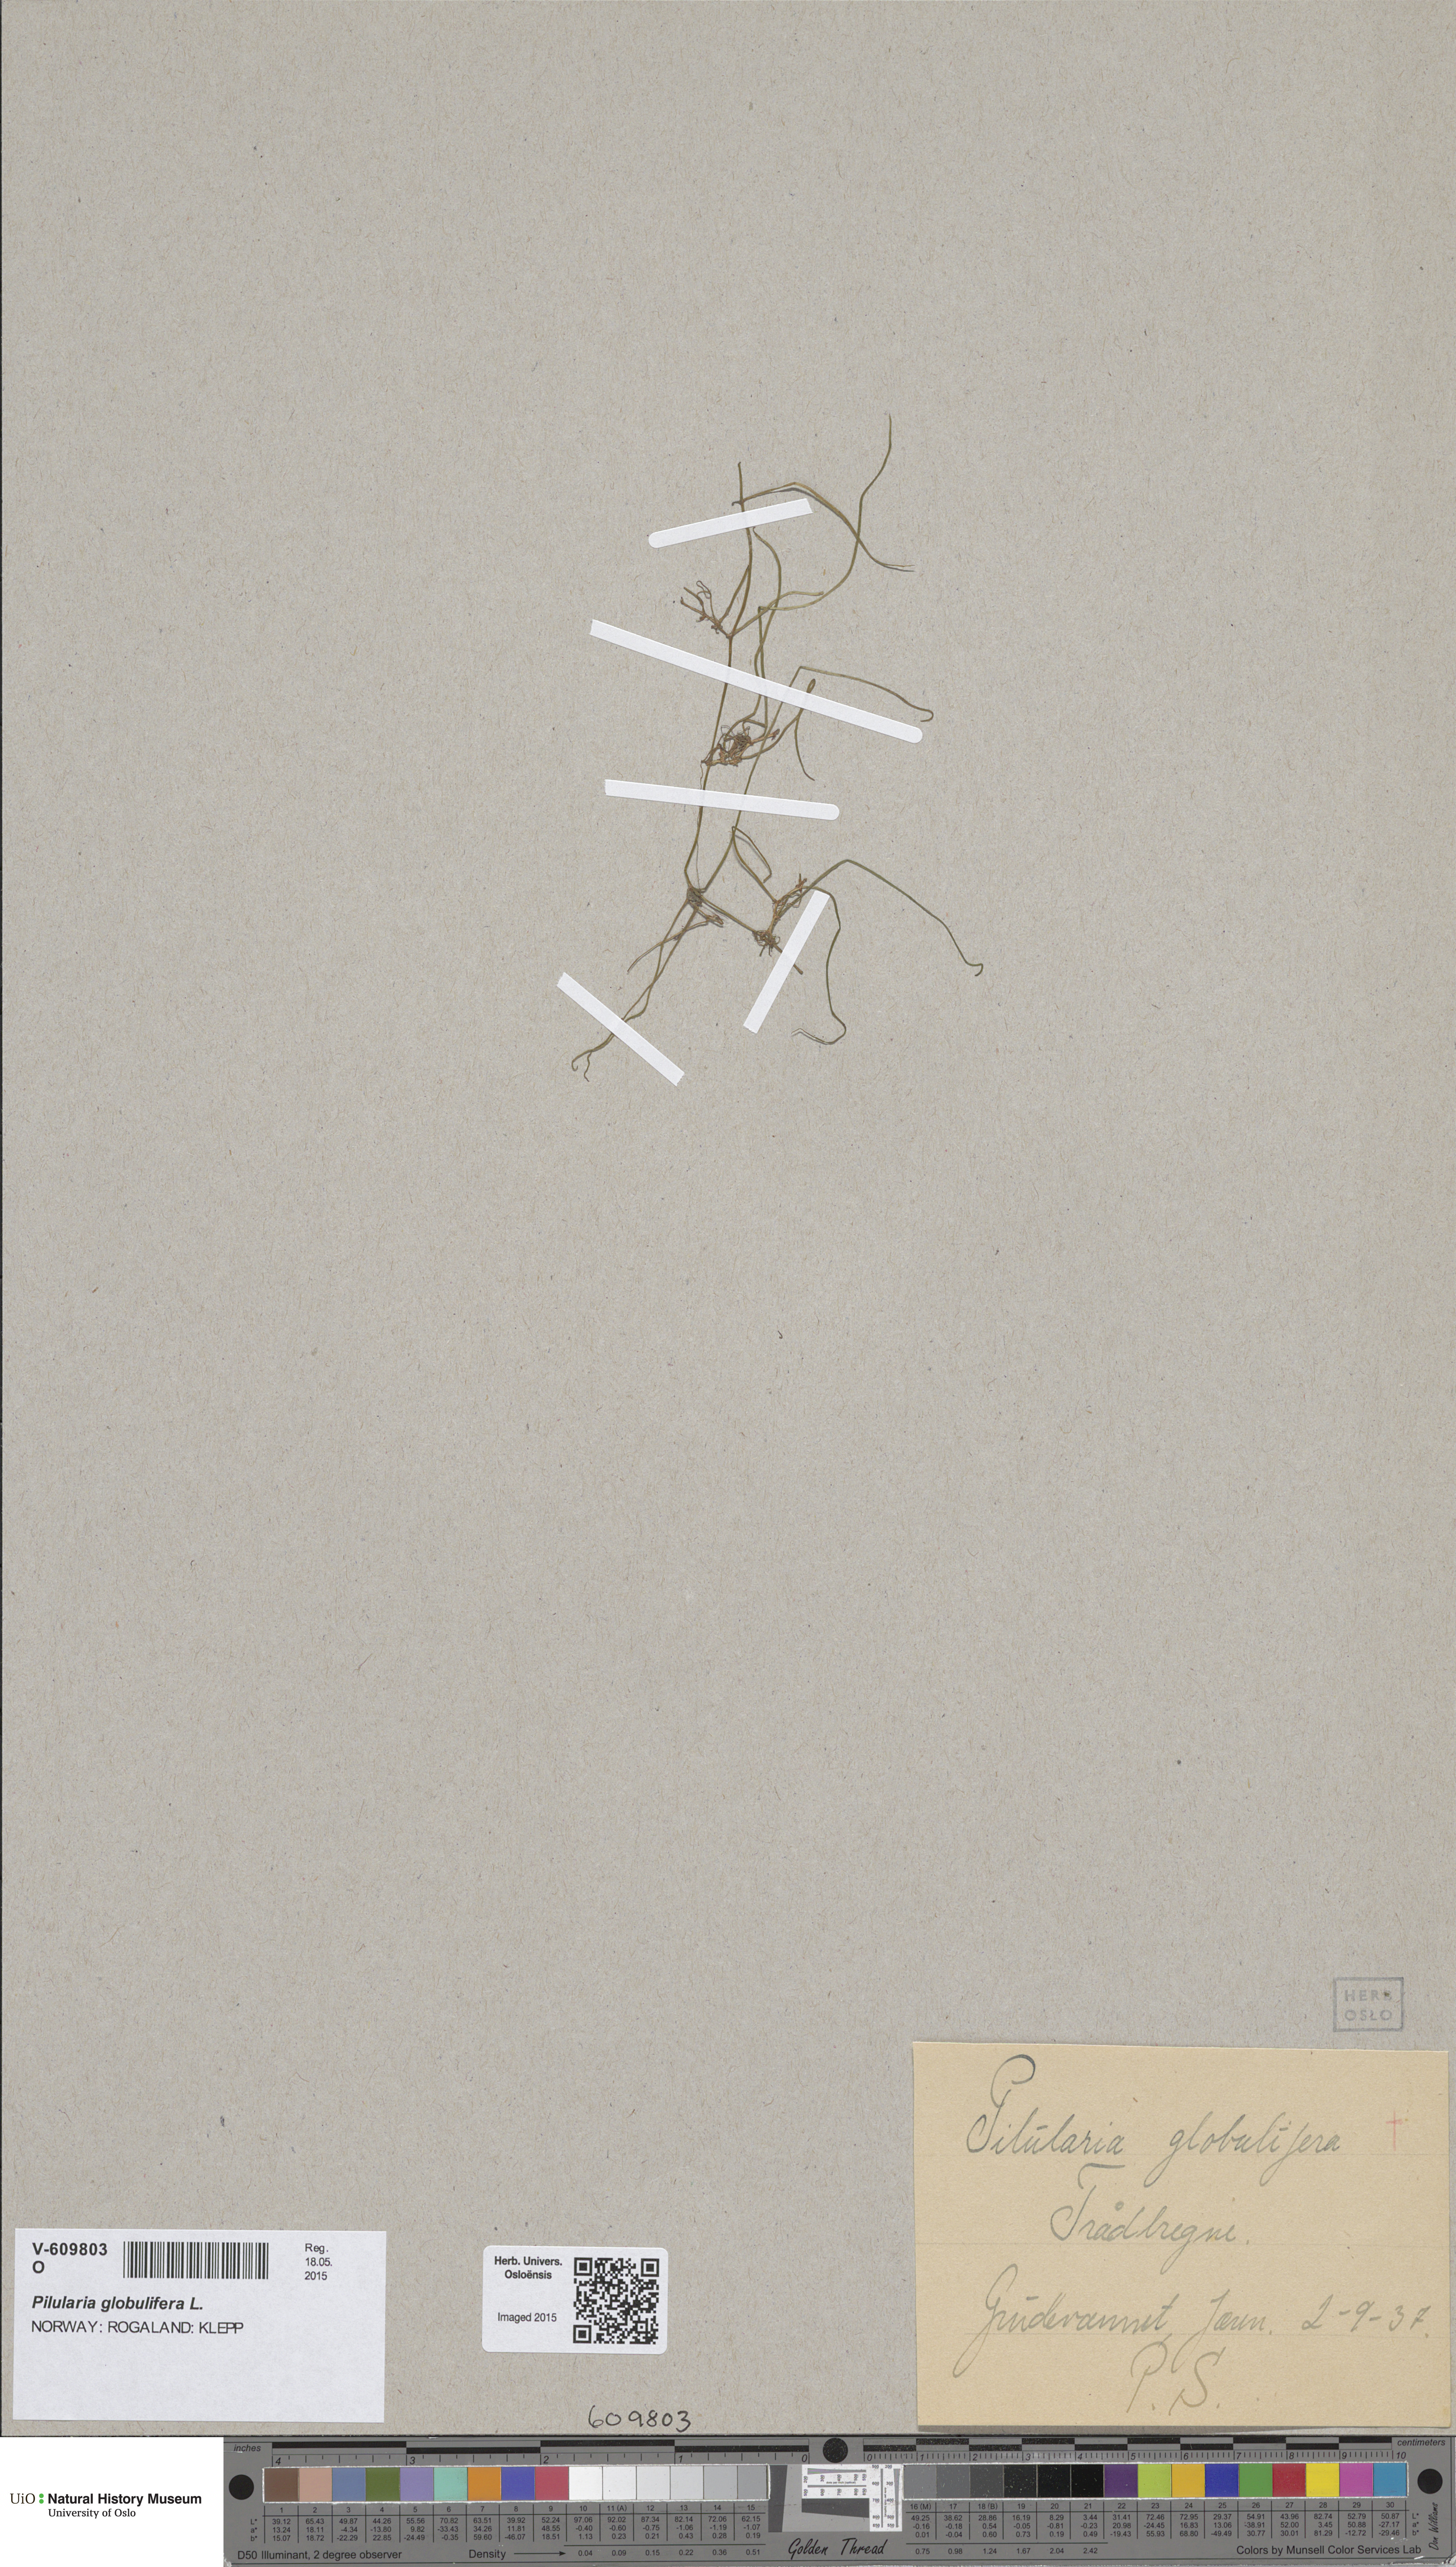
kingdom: Plantae
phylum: Tracheophyta
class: Polypodiopsida
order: Salviniales
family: Marsileaceae
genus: Pilularia
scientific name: Pilularia globulifera
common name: Pillwort
